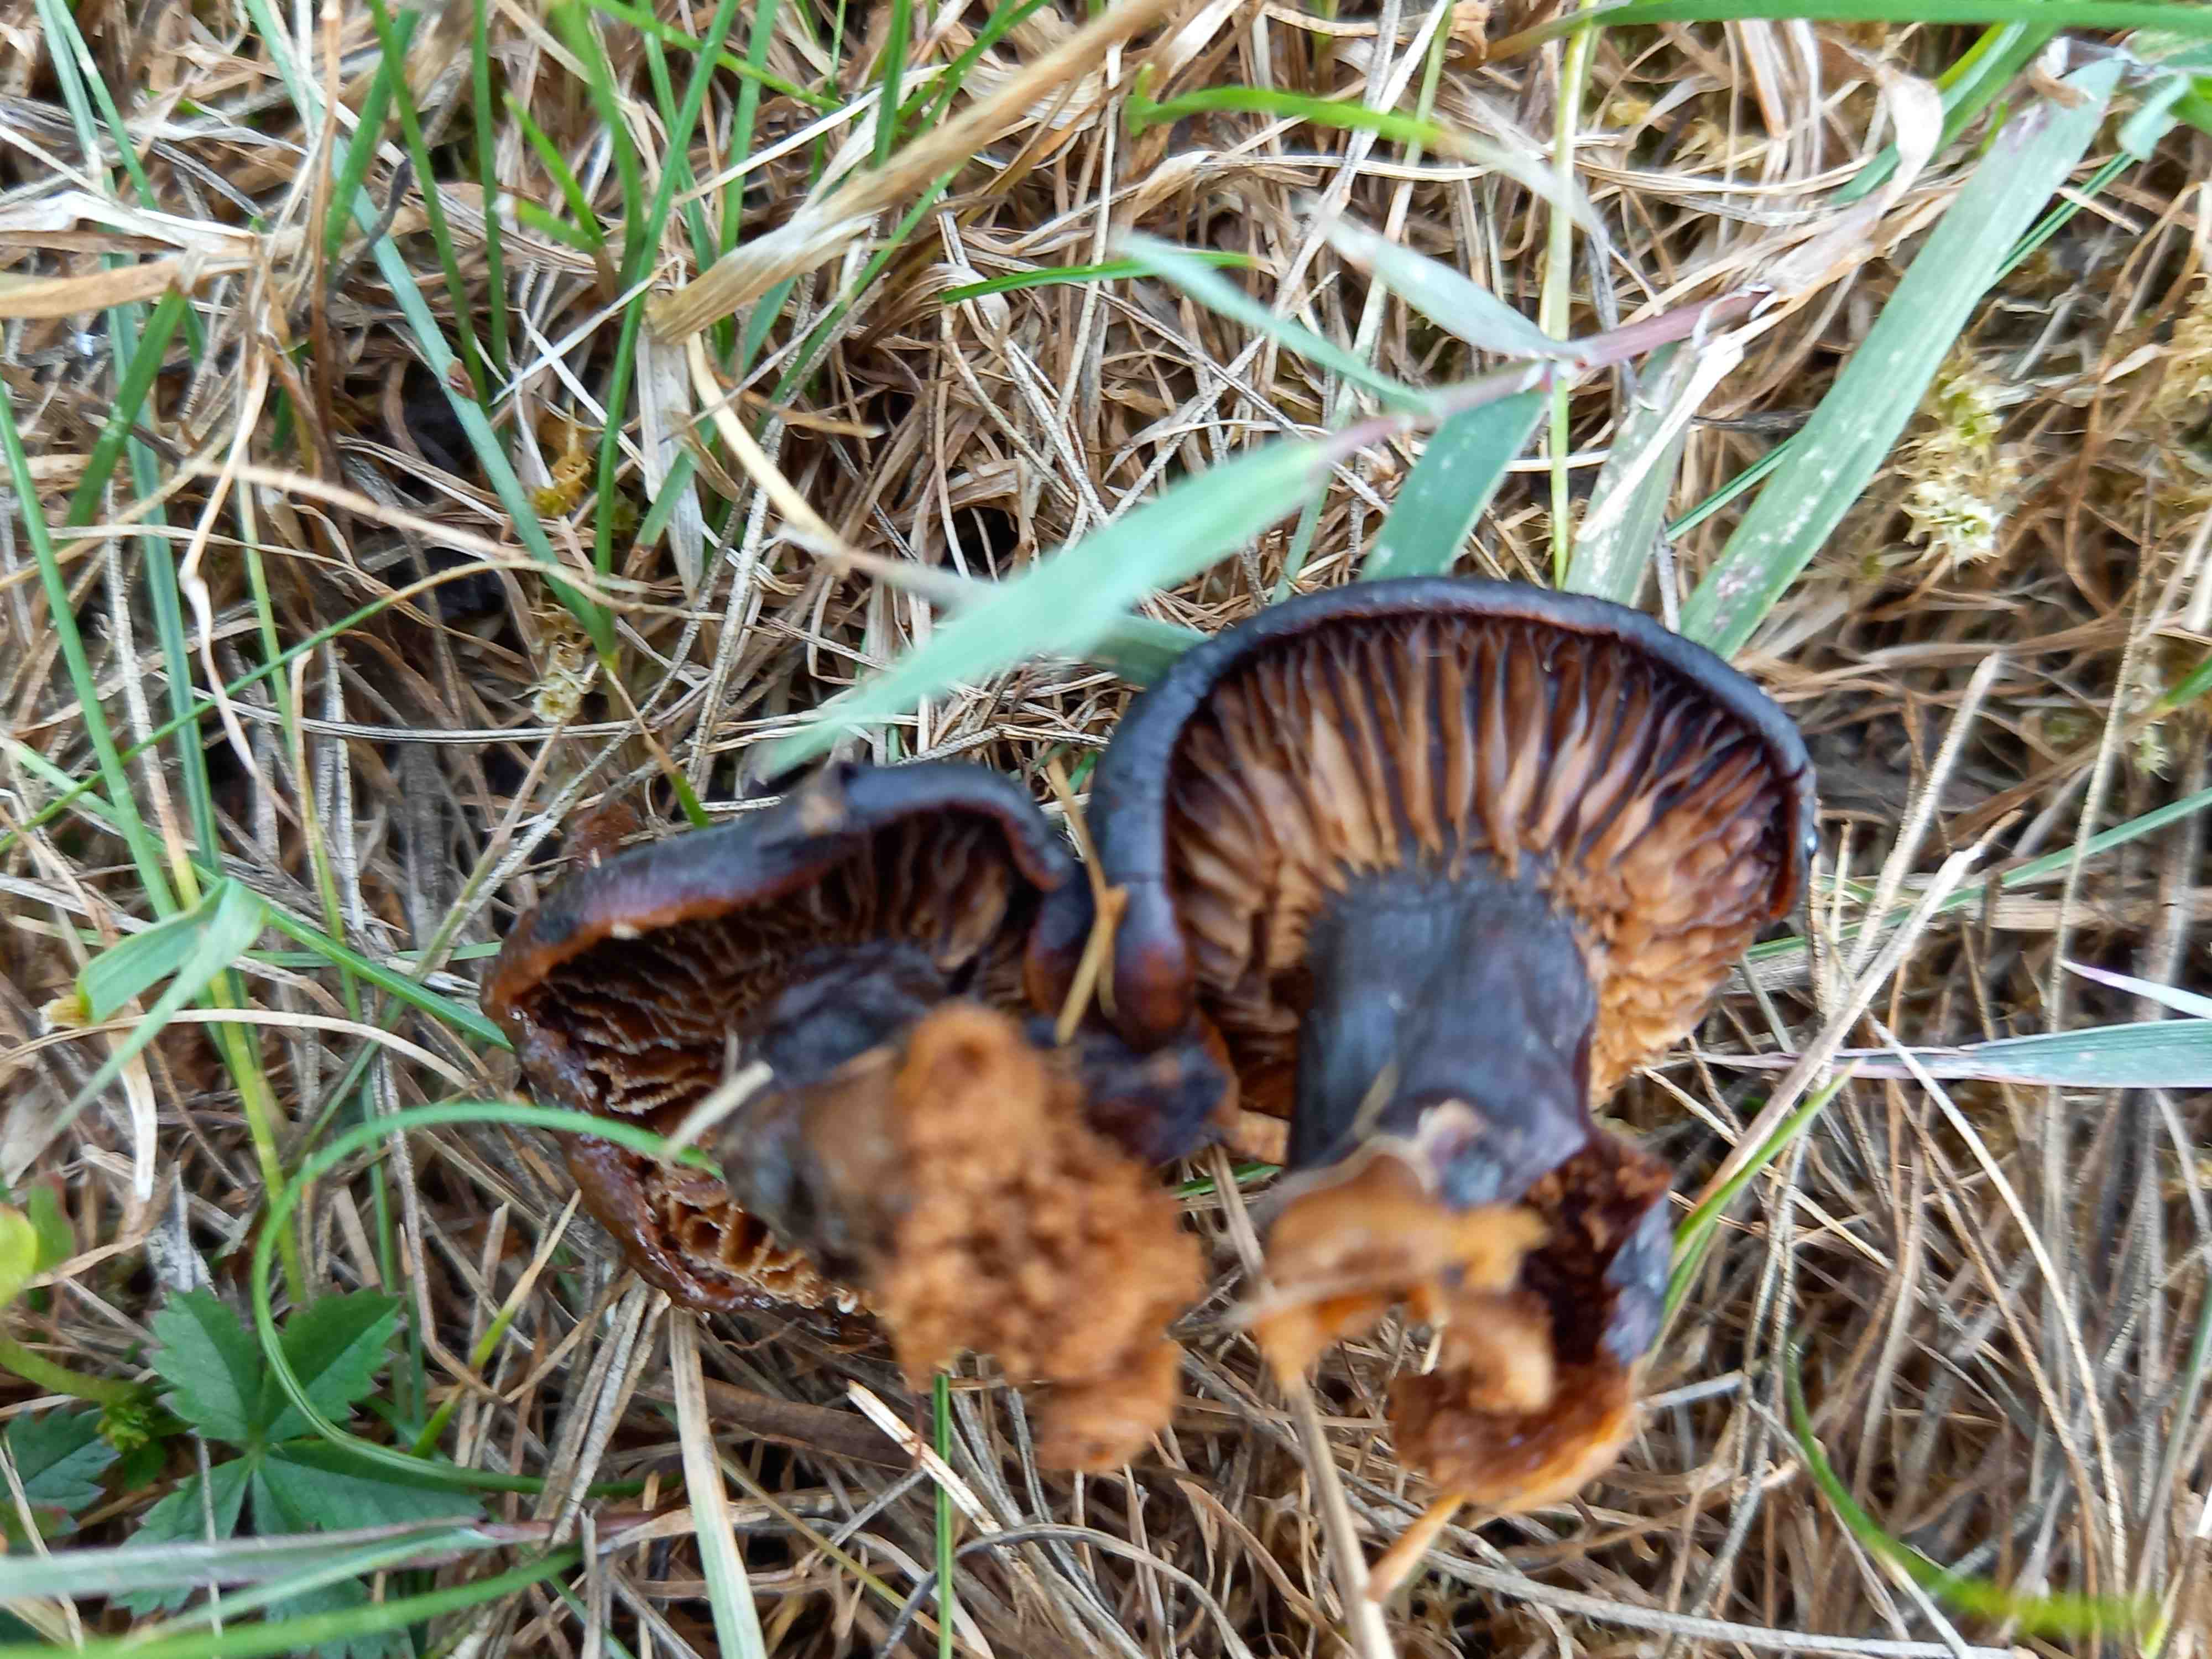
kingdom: Fungi
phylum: Basidiomycota
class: Agaricomycetes
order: Agaricales
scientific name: Agaricales
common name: champignonordenen
